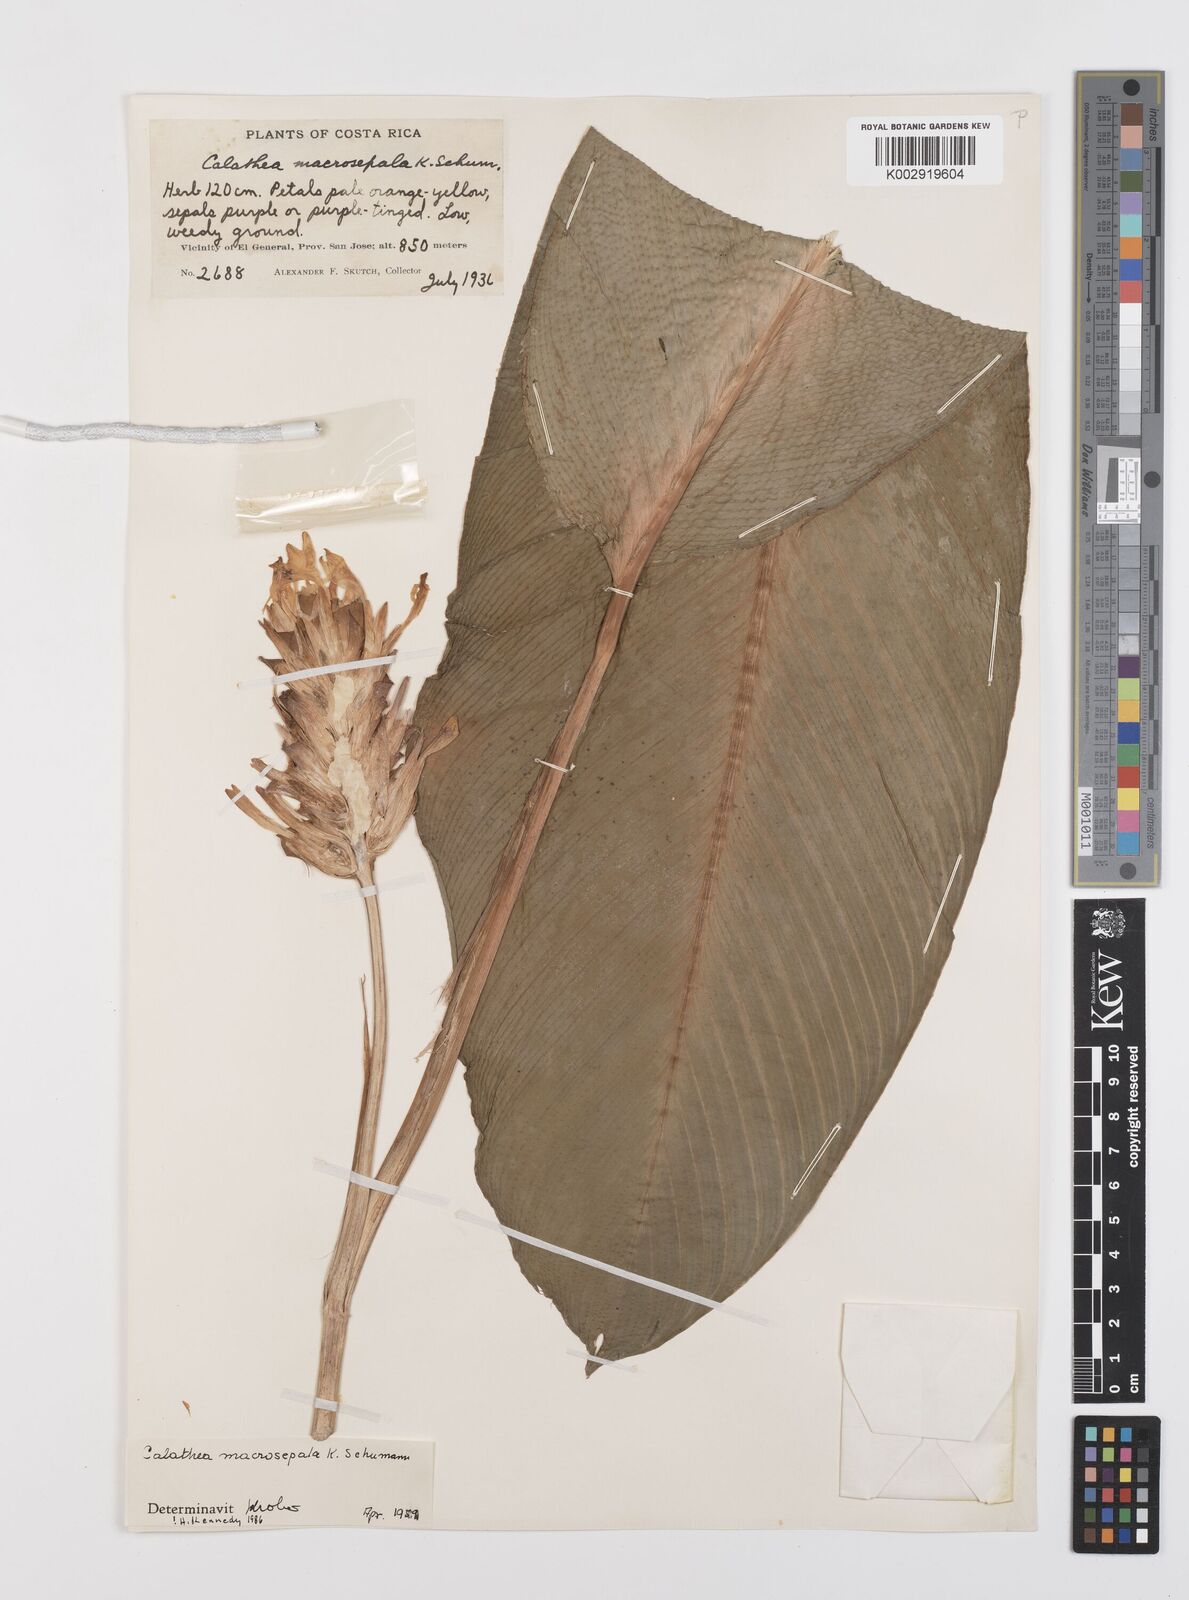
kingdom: Plantae
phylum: Tracheophyta
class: Liliopsida
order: Zingiberales
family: Marantaceae
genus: Goeppertia
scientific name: Goeppertia macrosepala
